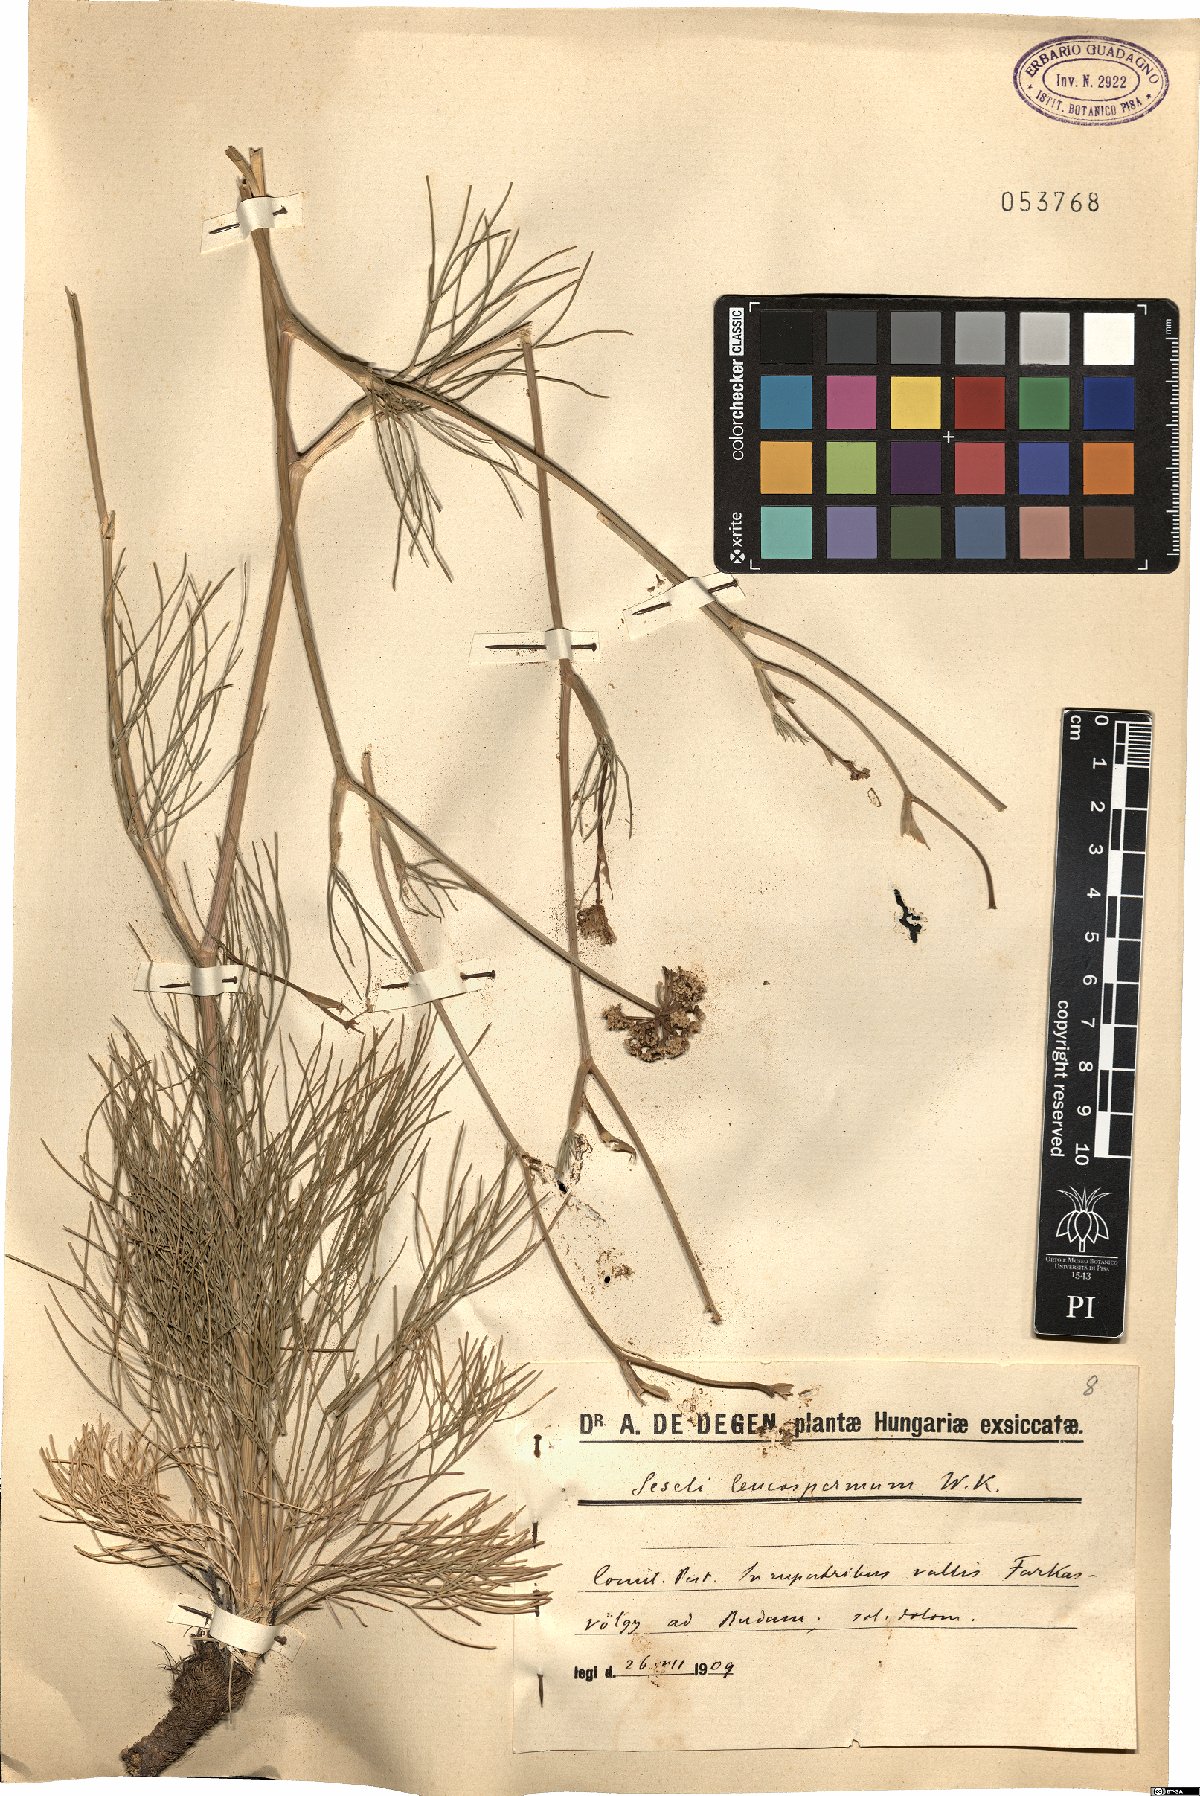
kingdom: Plantae
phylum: Tracheophyta
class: Magnoliopsida
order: Apiales
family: Apiaceae
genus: Seseli
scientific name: Seseli leucospermum
